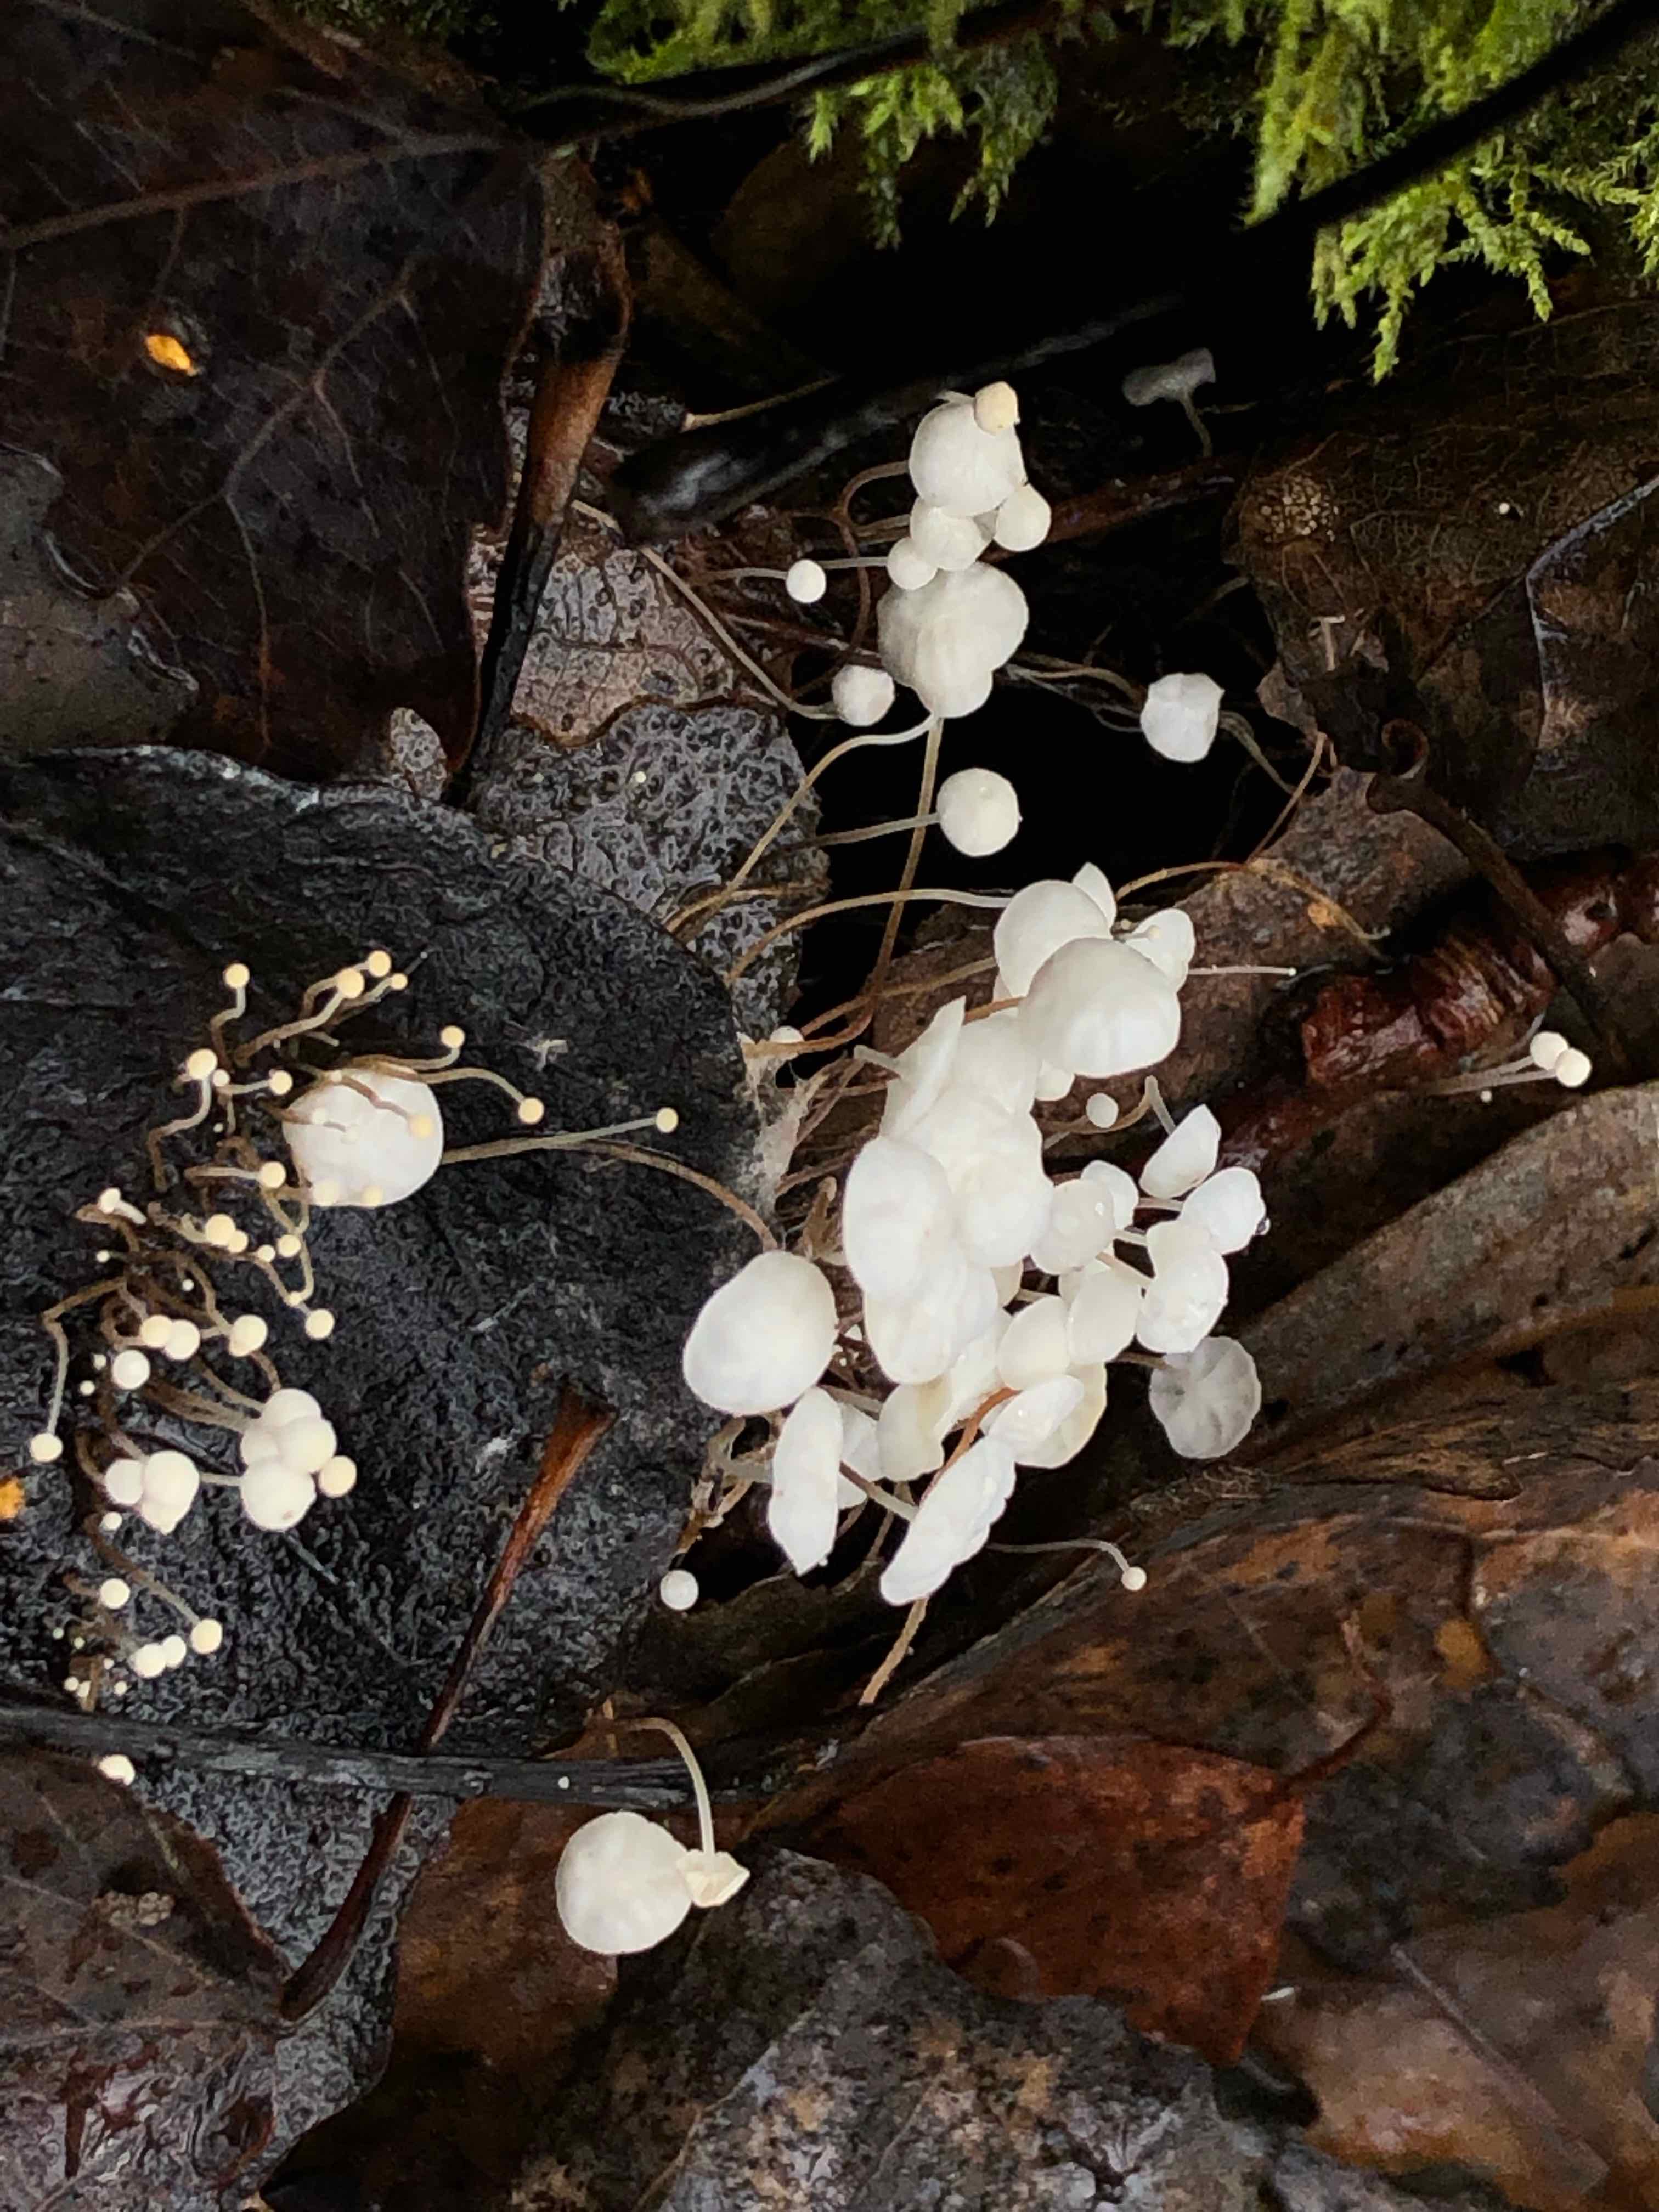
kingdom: Fungi
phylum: Basidiomycota
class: Agaricomycetes
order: Agaricales
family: Marasmiaceae
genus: Marasmius
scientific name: Marasmius epiphyllus
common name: blad-bruskhat
